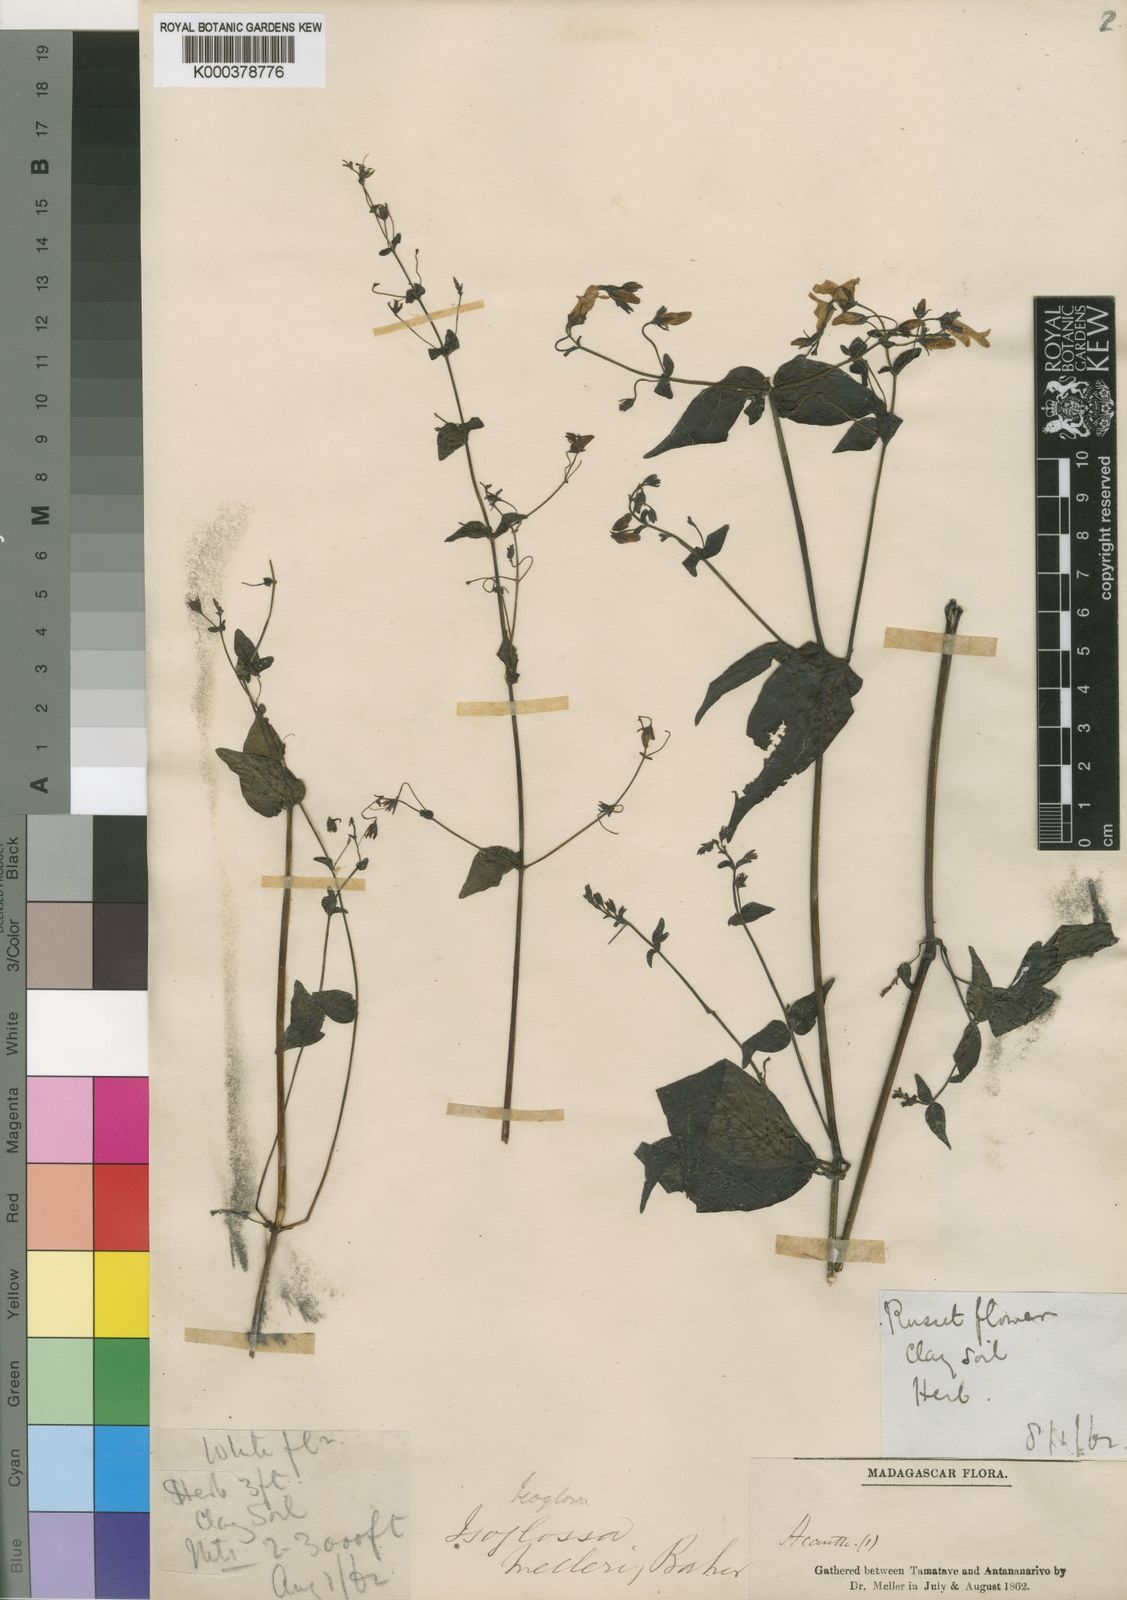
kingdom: Plantae
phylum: Tracheophyta
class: Magnoliopsida
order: Lamiales
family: Acanthaceae
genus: Isoglossa
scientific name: Isoglossa melleri
